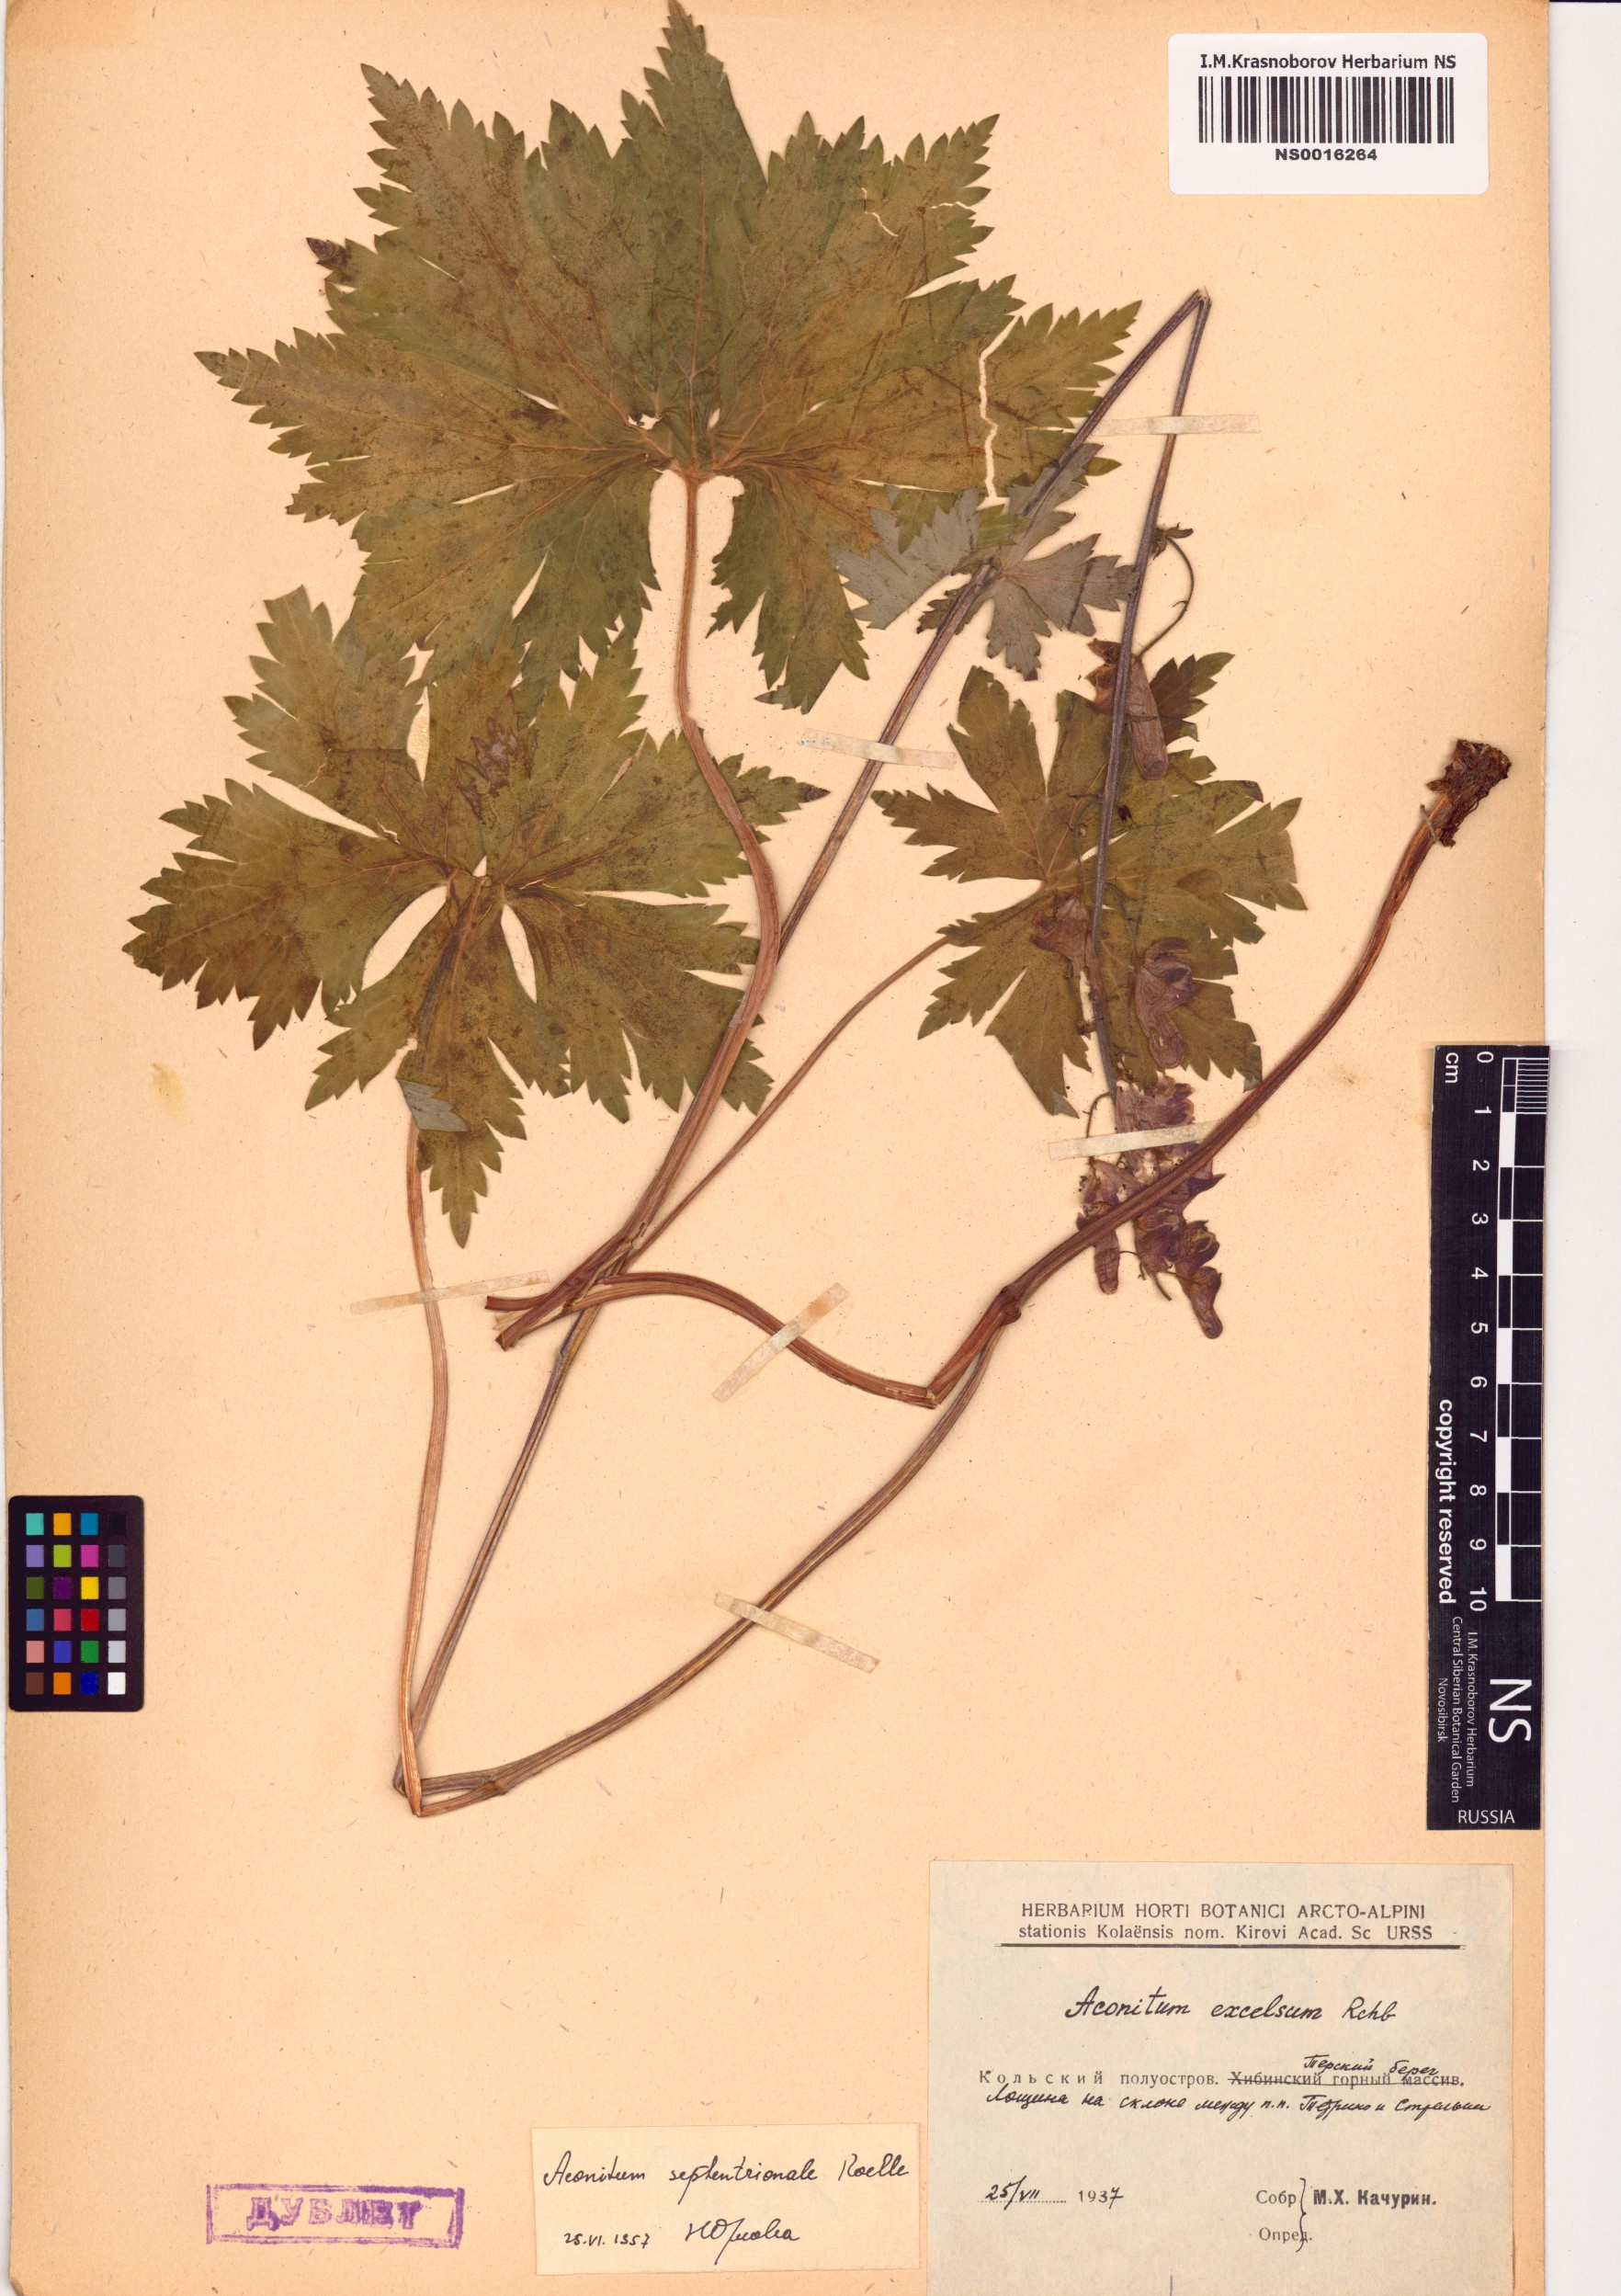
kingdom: Plantae
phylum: Tracheophyta
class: Magnoliopsida
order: Ranunculales
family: Ranunculaceae
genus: Aconitum
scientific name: Aconitum septentrionale
